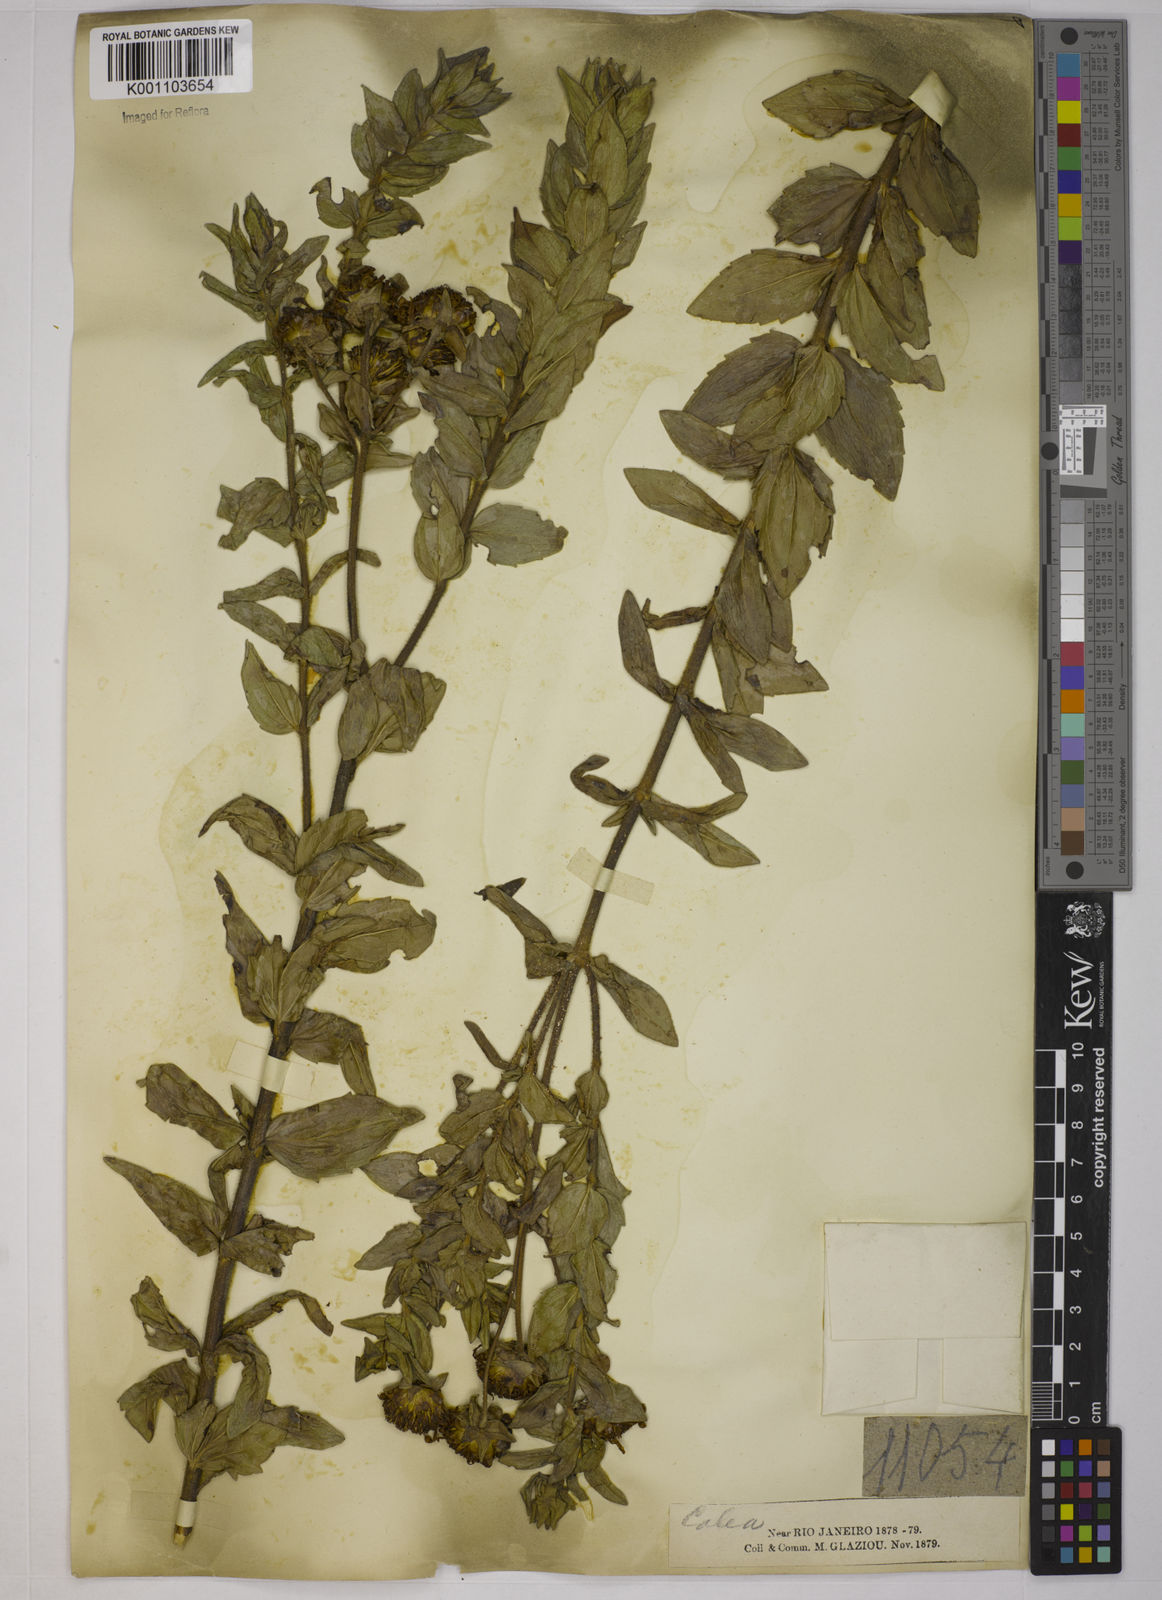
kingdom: Plantae
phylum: Tracheophyta
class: Magnoliopsida
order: Asterales
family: Asteraceae
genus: Calea
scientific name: Calea myrtifolia
